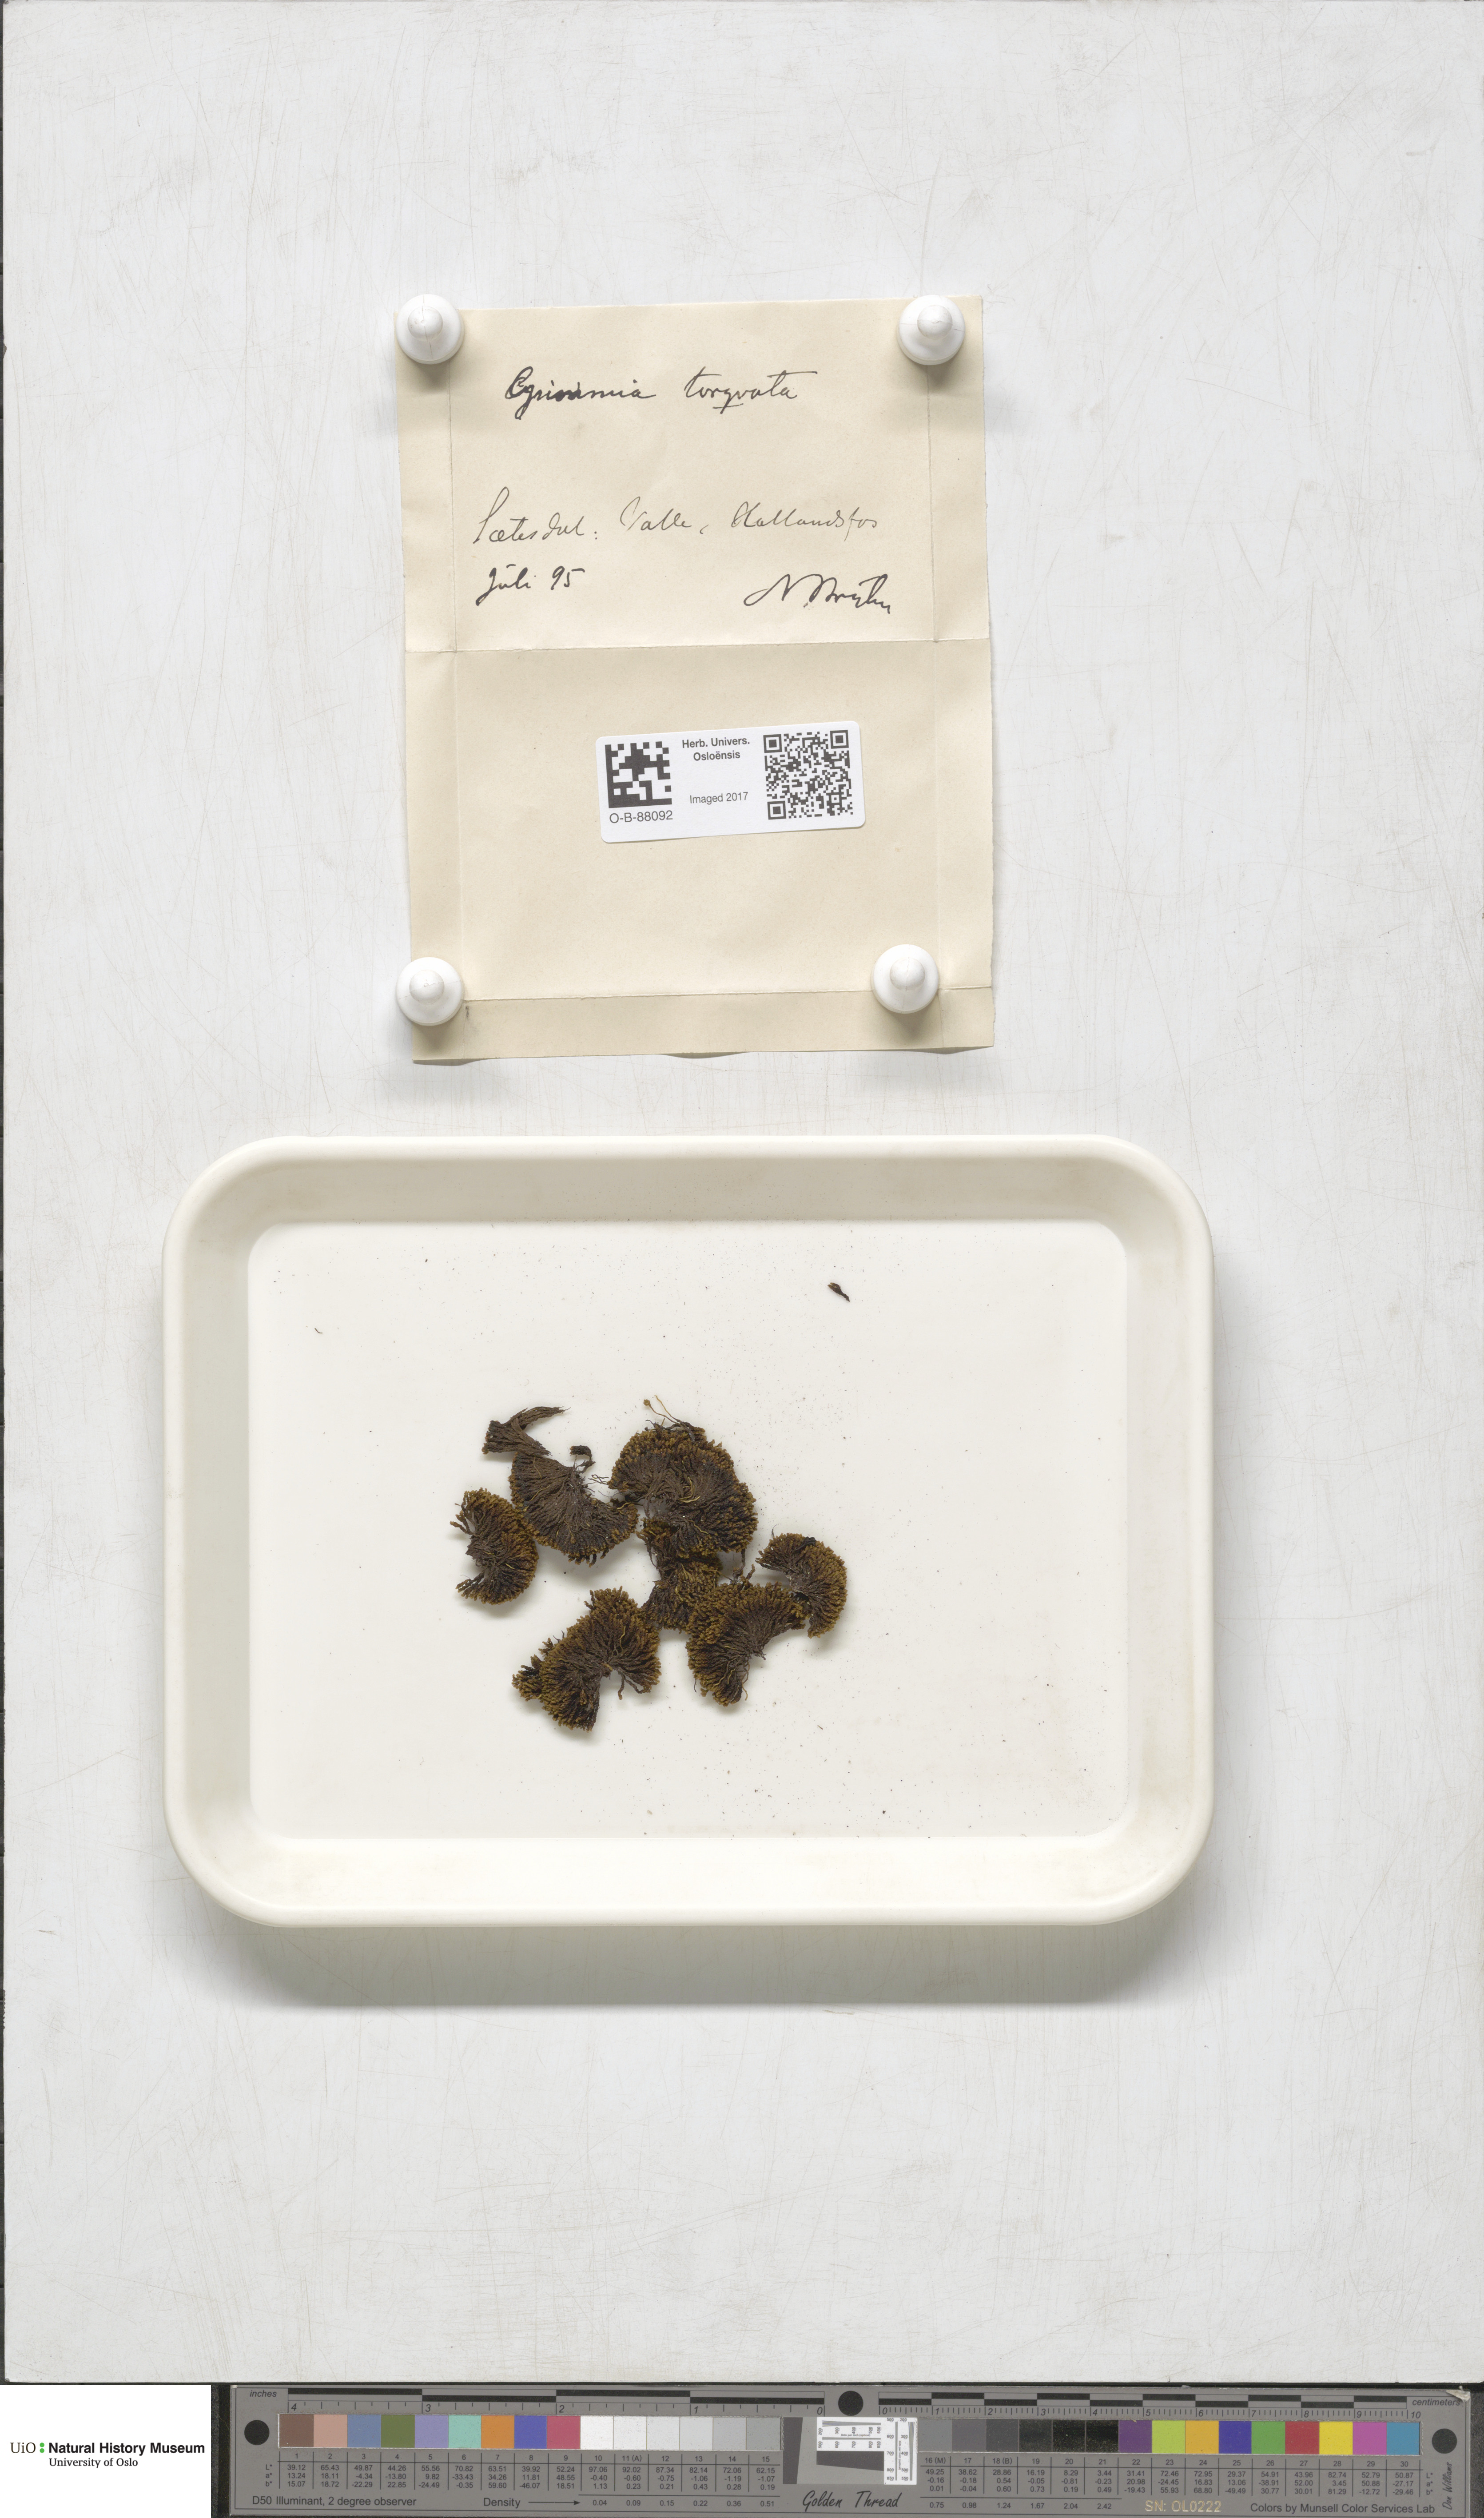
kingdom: Plantae
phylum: Bryophyta
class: Bryopsida
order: Grimmiales
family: Grimmiaceae
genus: Grimmia
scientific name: Grimmia torquata
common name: Twisted grimmia
